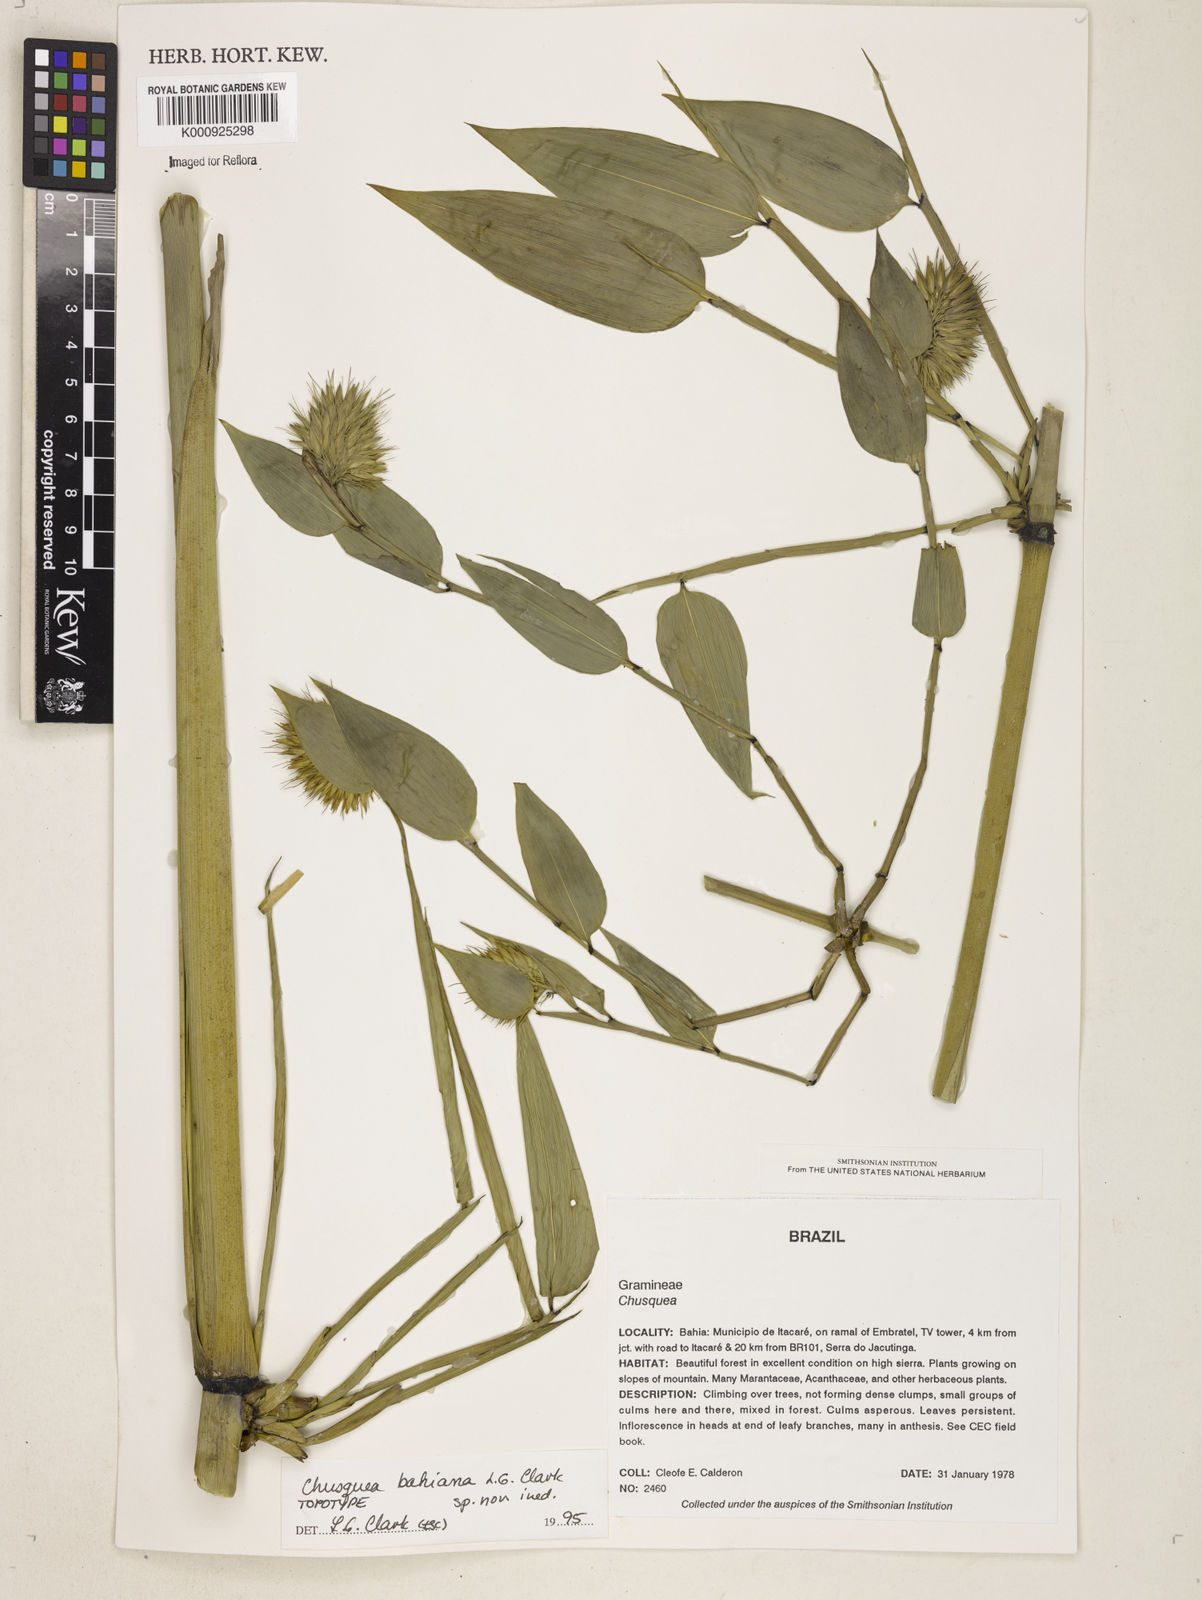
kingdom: Plantae
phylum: Tracheophyta
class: Liliopsida
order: Poales
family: Poaceae
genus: Chusquea
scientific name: Chusquea bahiana
